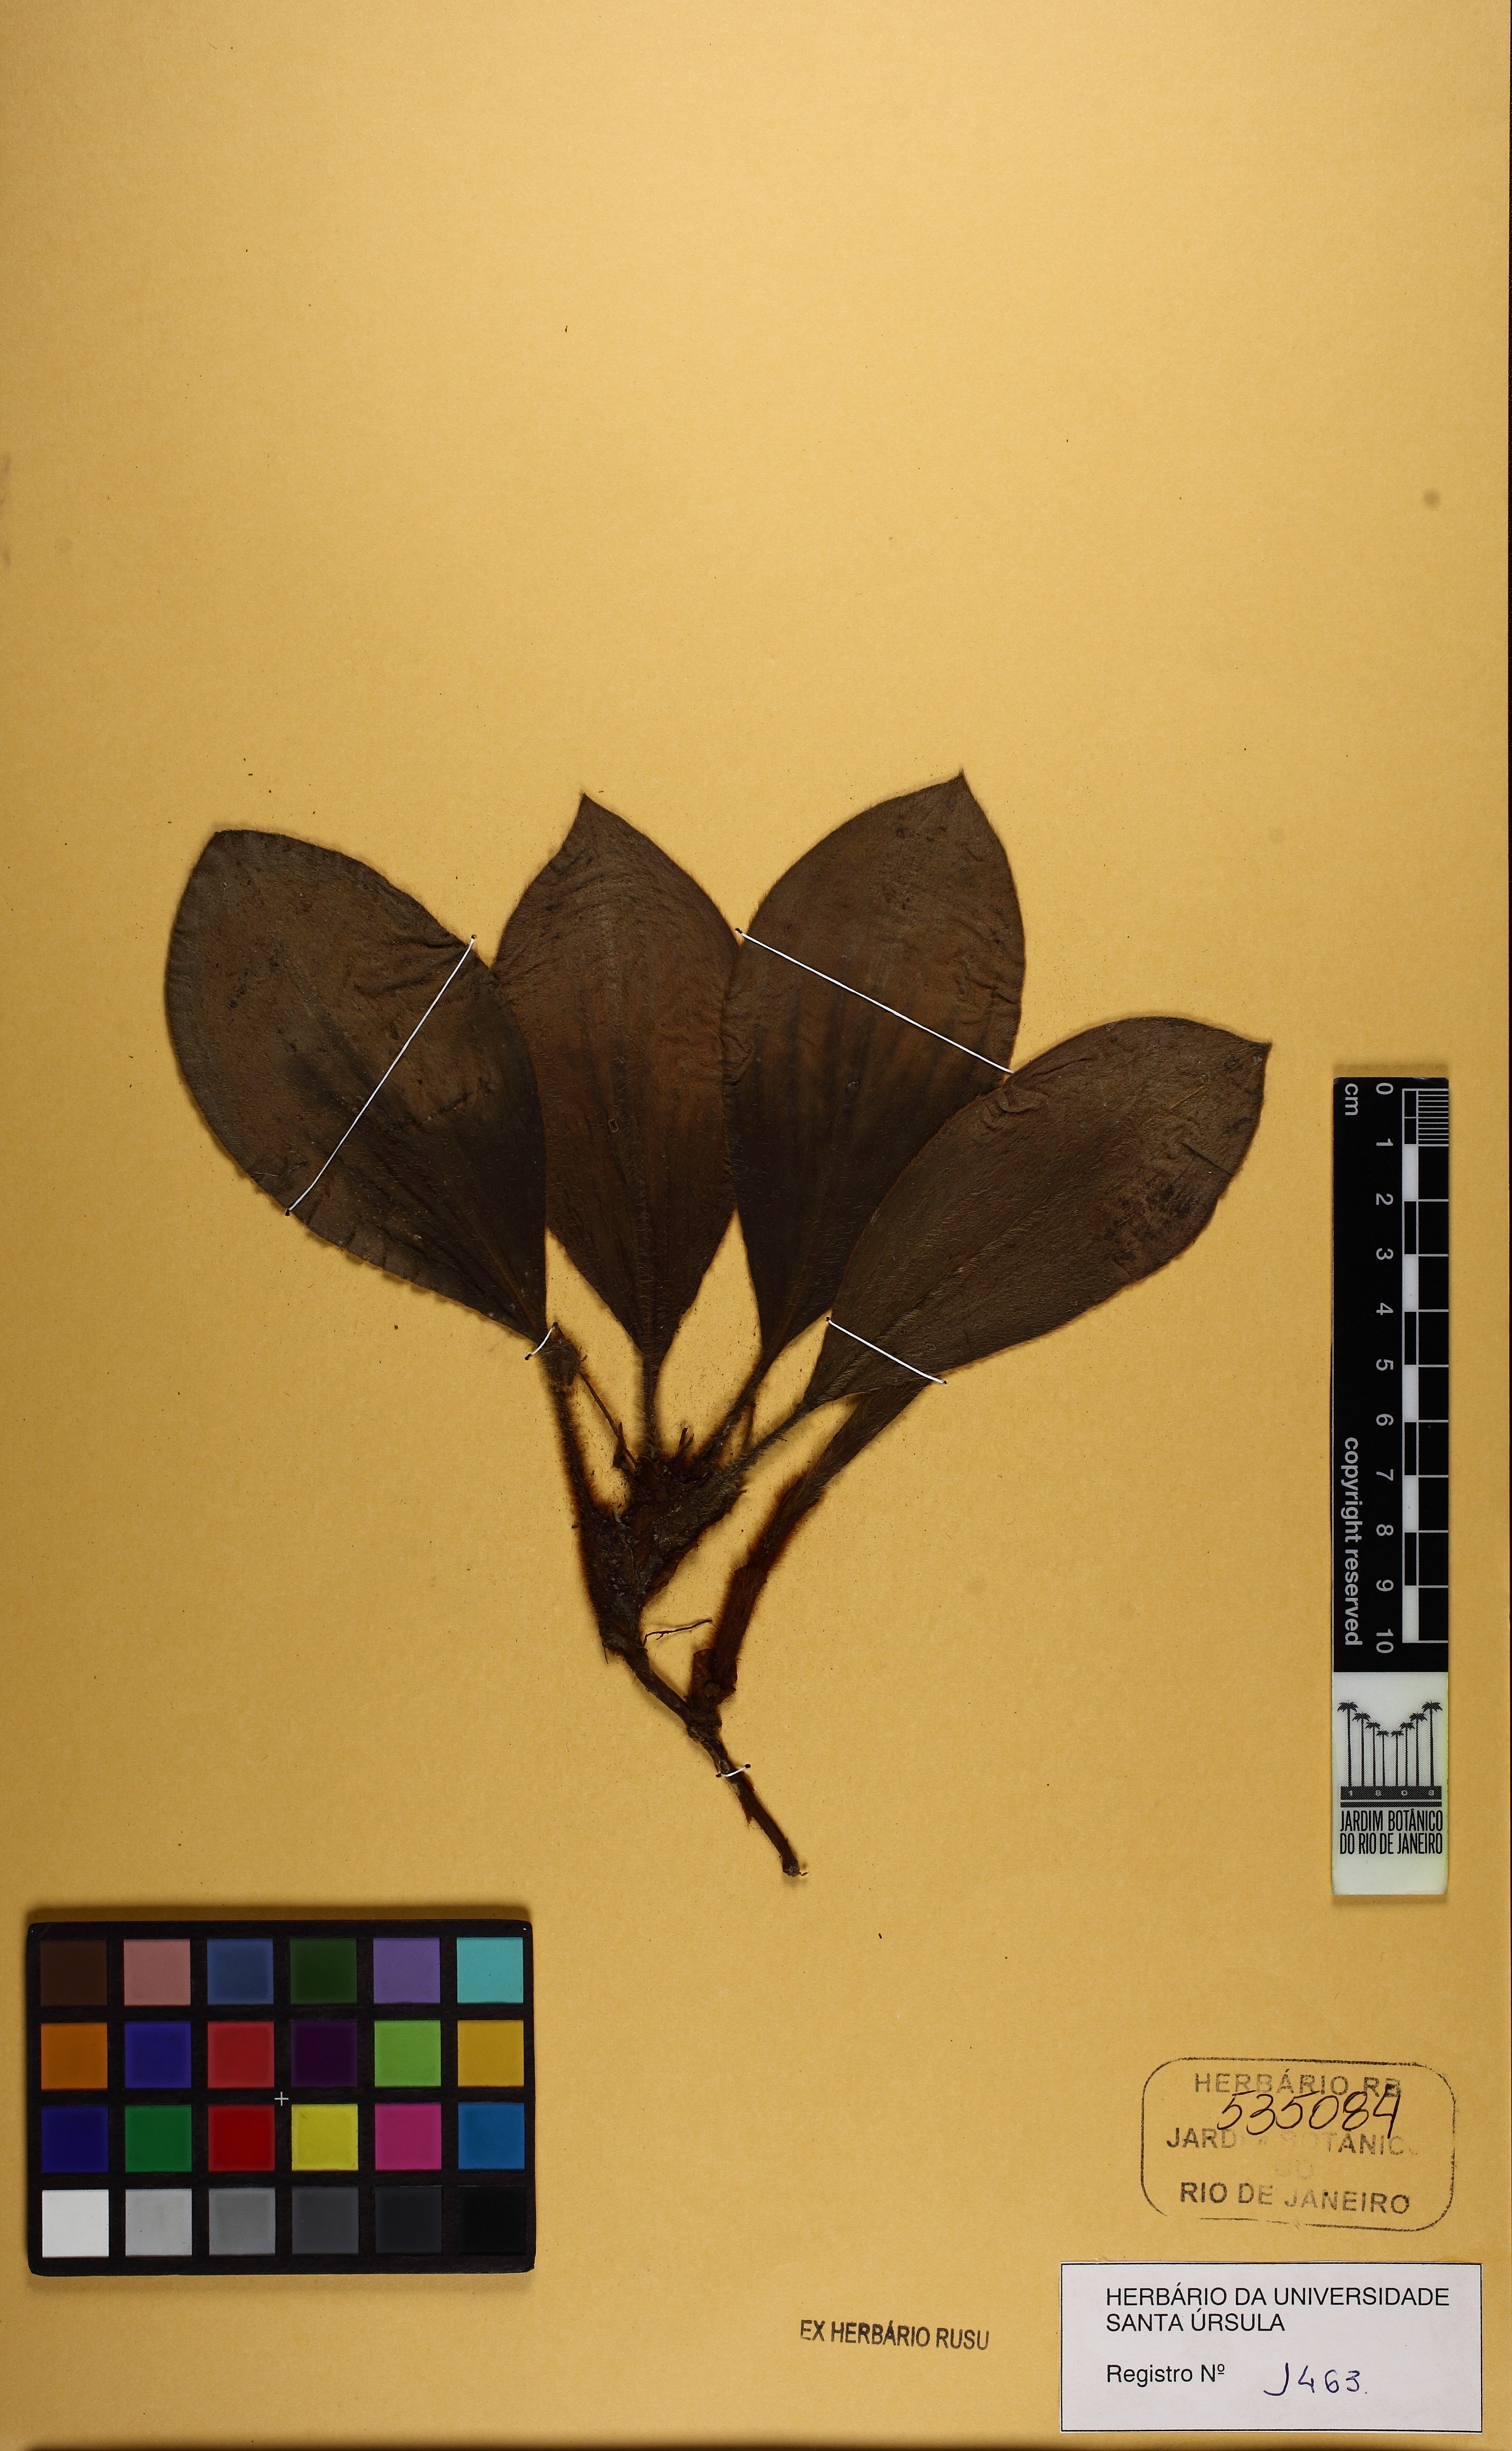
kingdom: Plantae
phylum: Tracheophyta
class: Liliopsida
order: Commelinales
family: Commelinaceae
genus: Siderasis
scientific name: Siderasis fuscata
